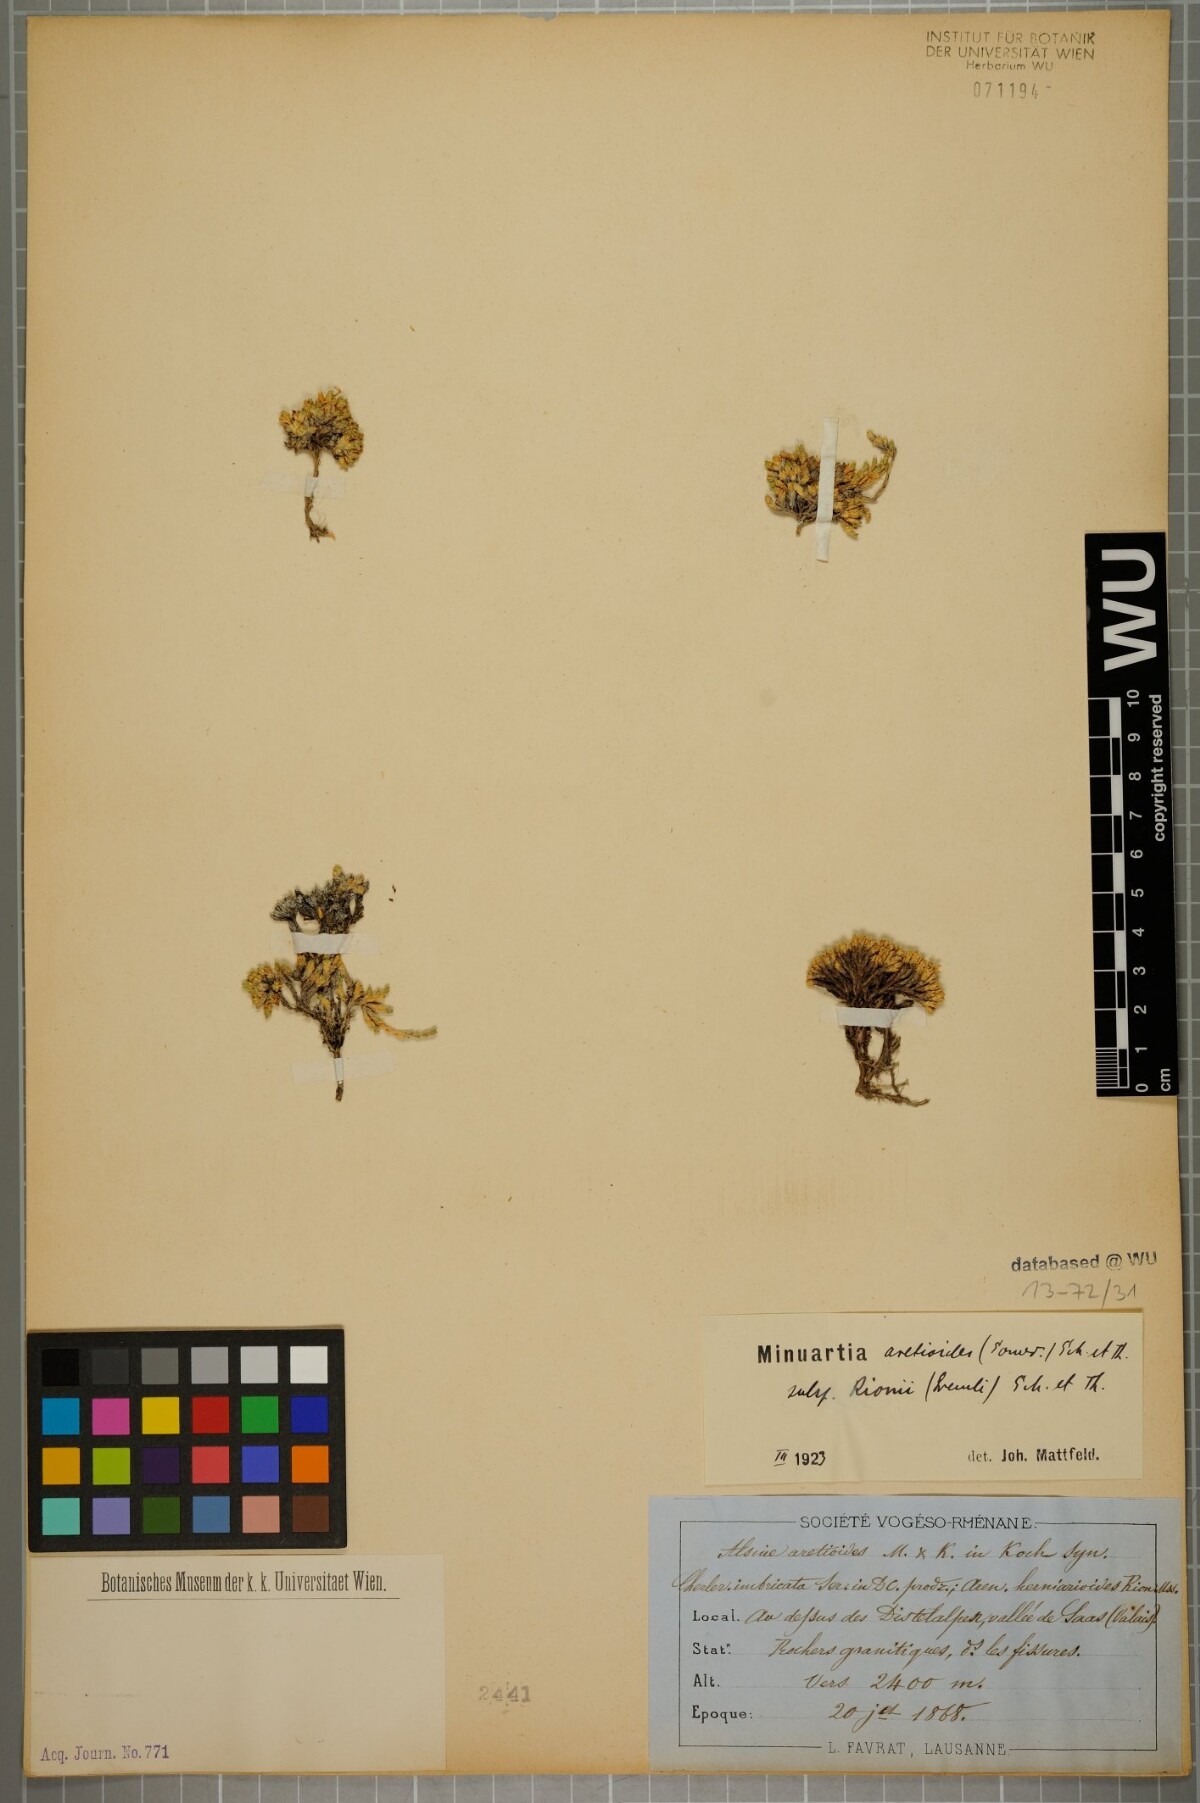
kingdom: Plantae
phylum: Tracheophyta
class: Magnoliopsida
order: Caryophyllales
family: Caryophyllaceae
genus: Facchinia
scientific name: Facchinia herniarioides
